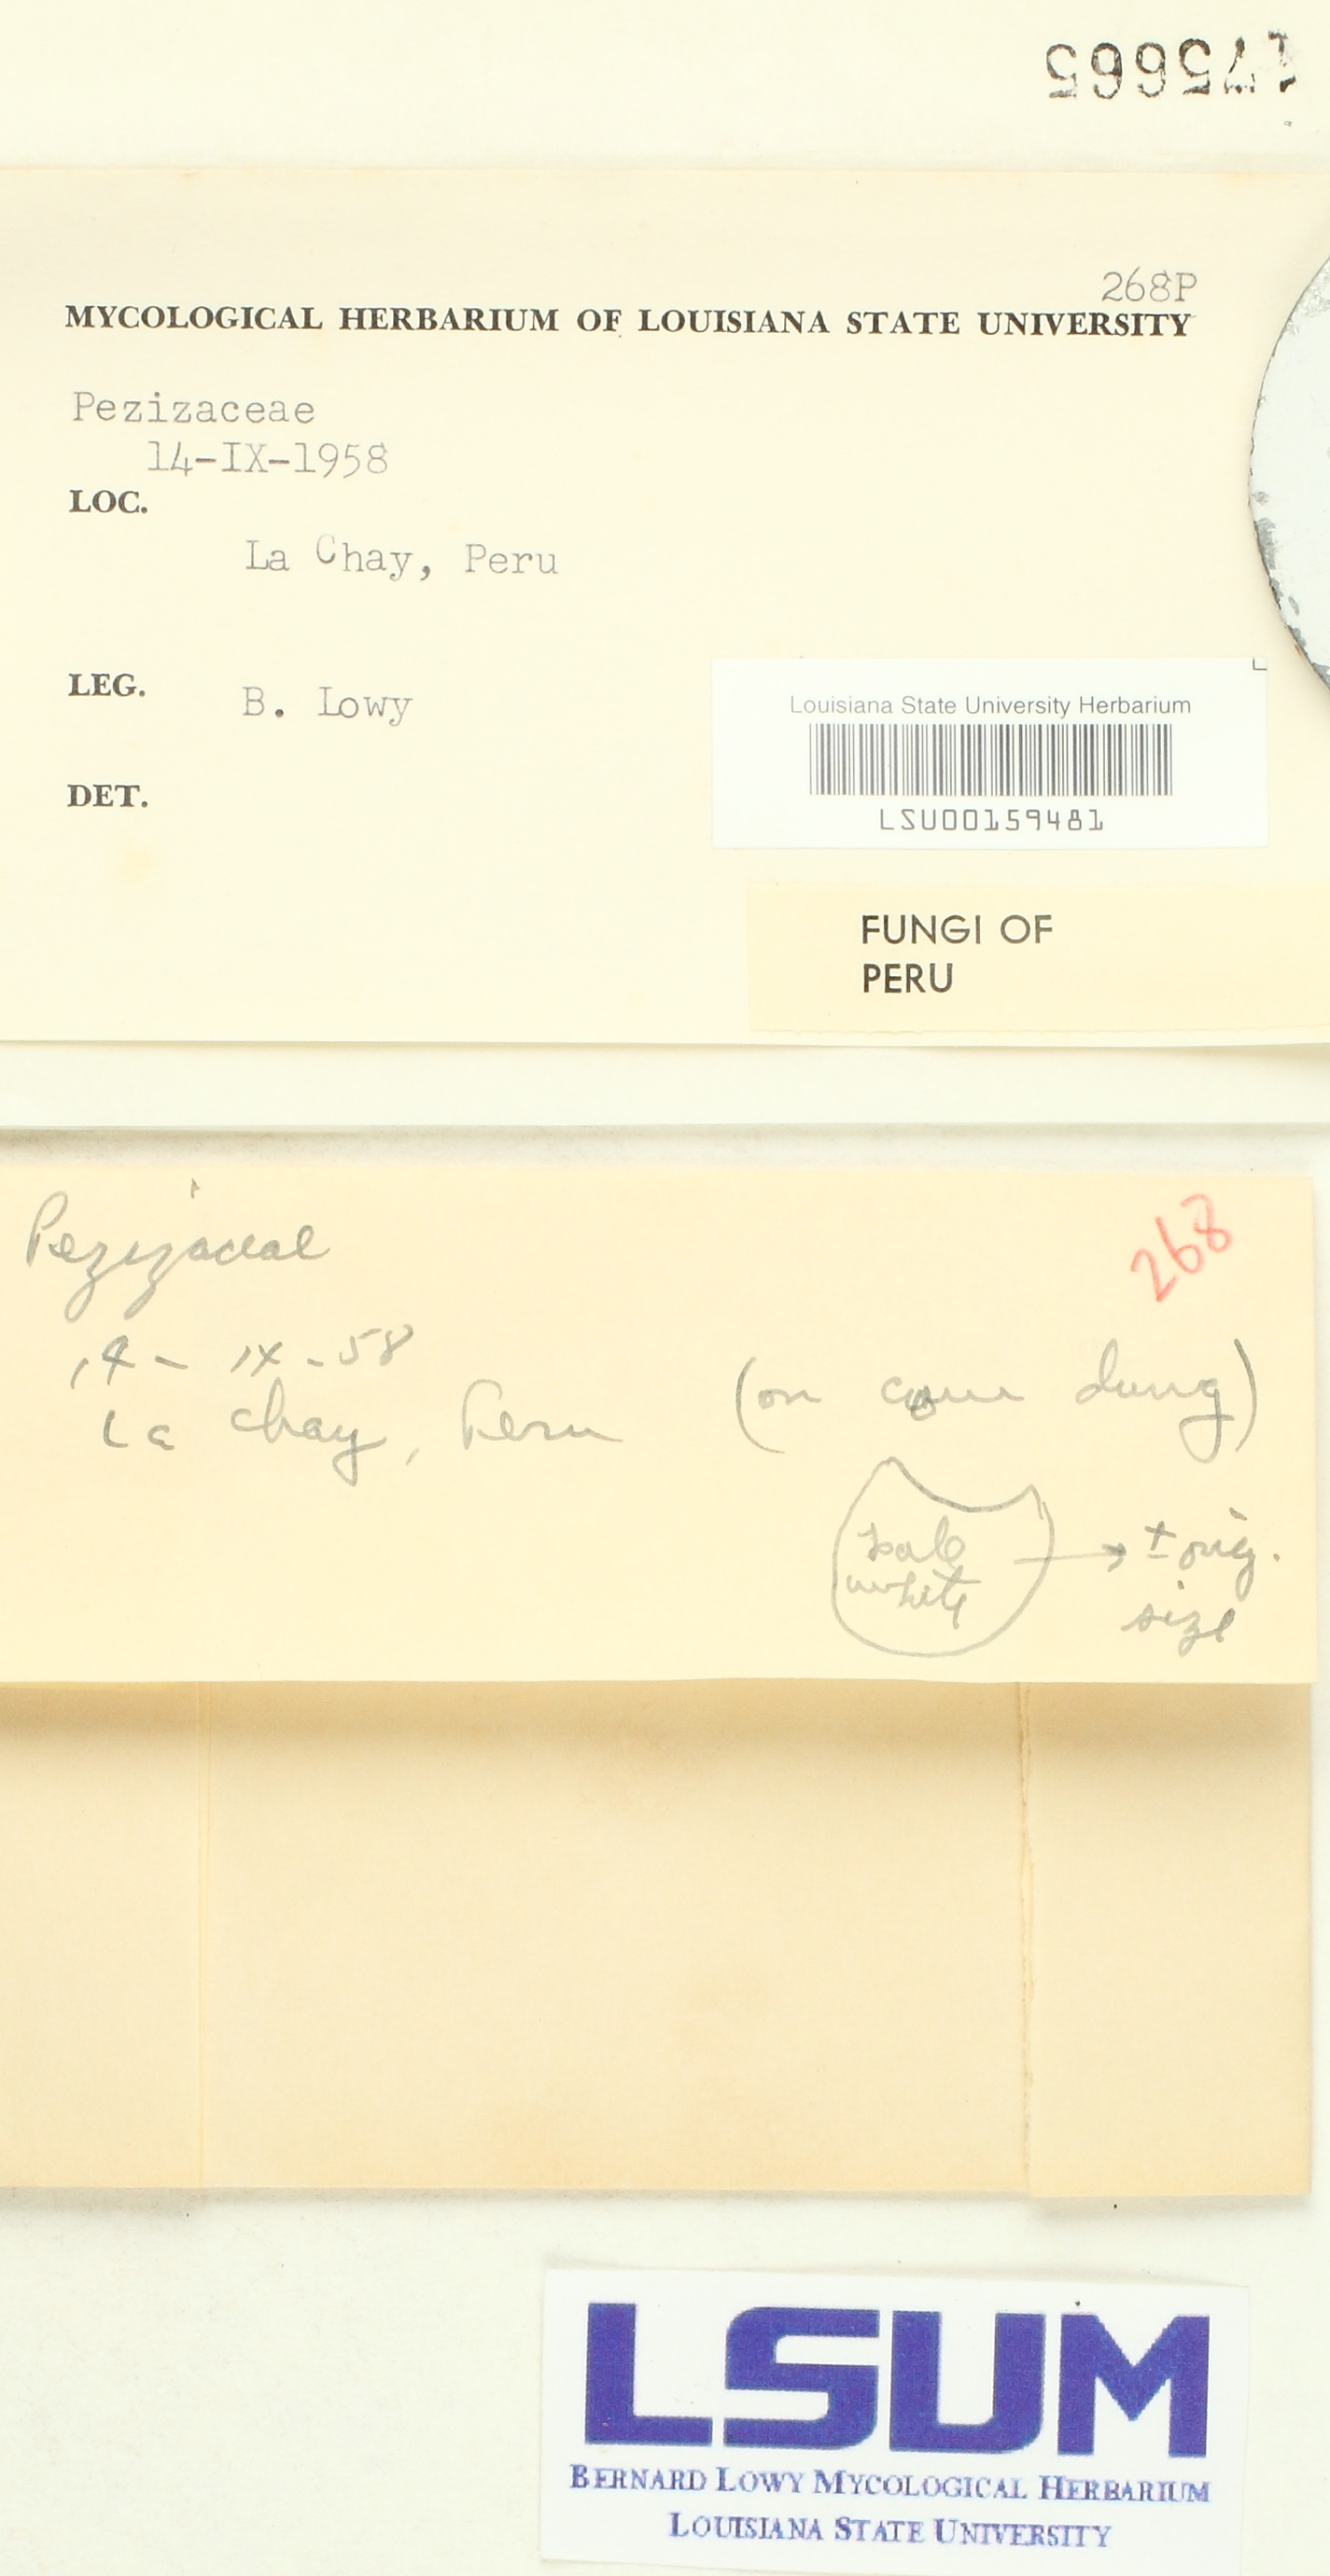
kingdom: Fungi
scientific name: Fungi
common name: Fungi
